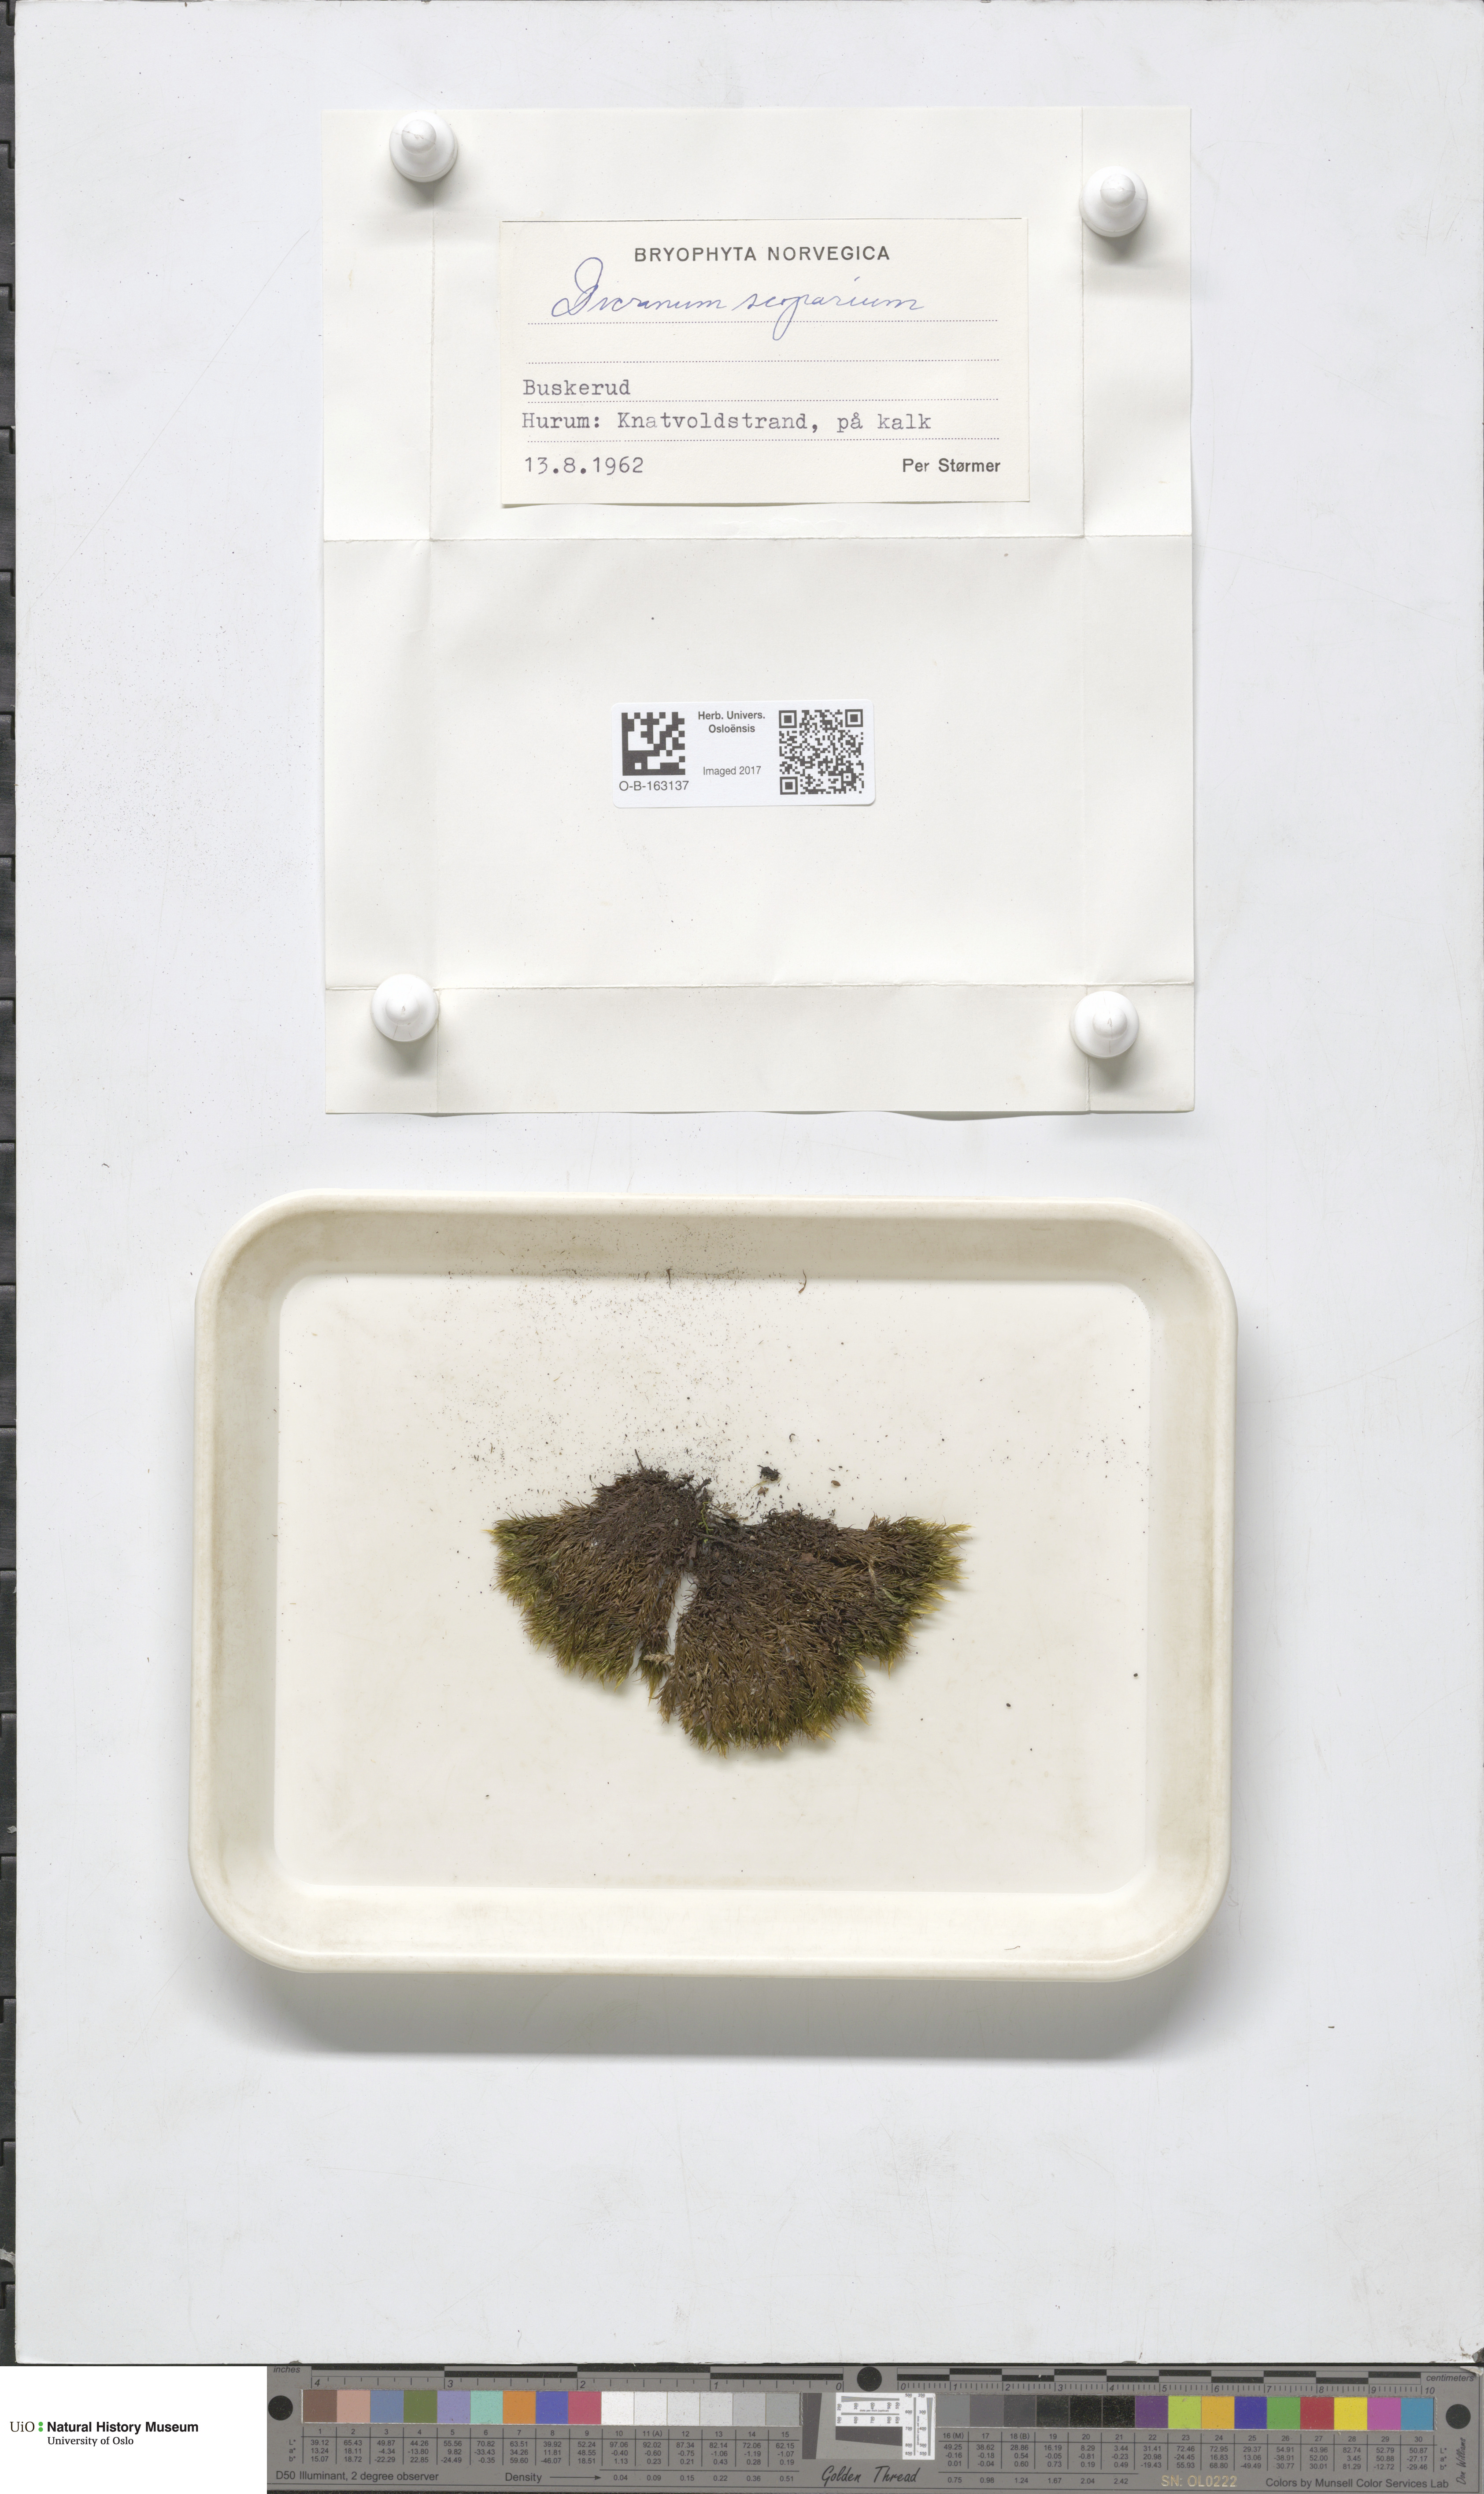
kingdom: Plantae
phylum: Bryophyta
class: Bryopsida
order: Dicranales
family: Dicranaceae
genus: Dicranum
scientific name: Dicranum scoparium
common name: Broom fork-moss
